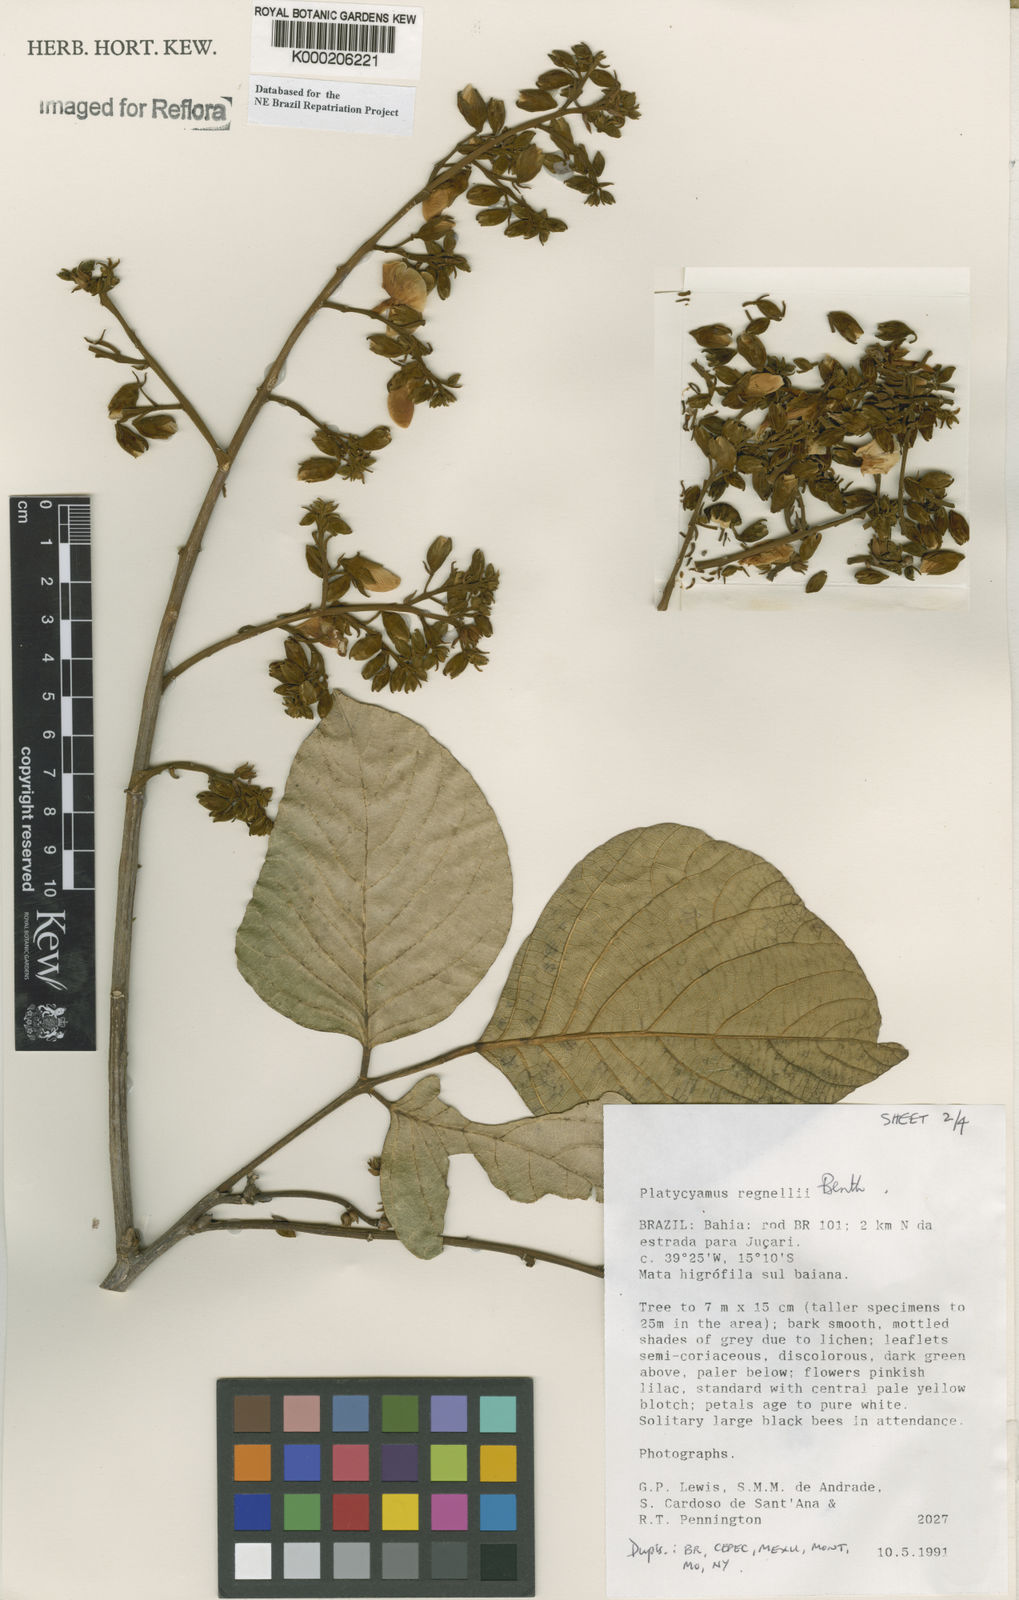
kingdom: Plantae
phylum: Tracheophyta
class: Magnoliopsida
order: Fabales
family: Fabaceae
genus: Platycyamus
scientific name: Platycyamus regnellii
